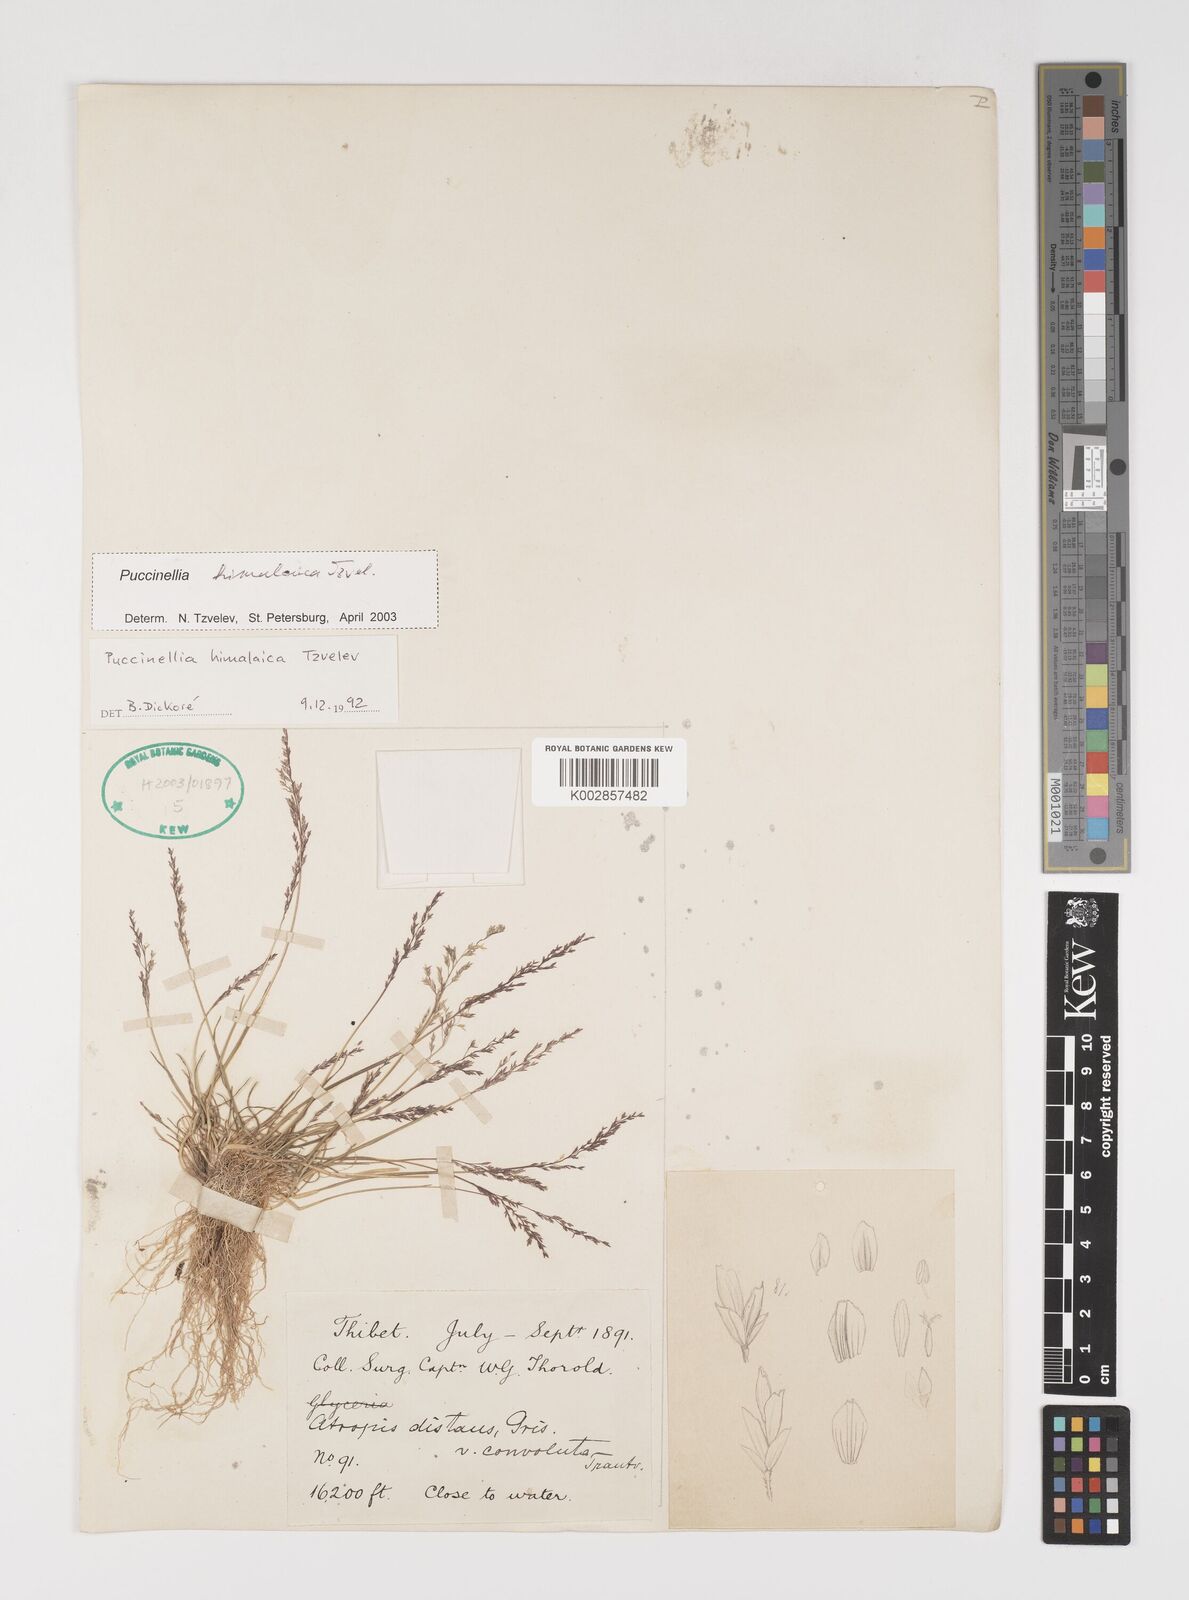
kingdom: Plantae
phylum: Tracheophyta
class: Liliopsida
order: Poales
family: Poaceae
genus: Puccinellia
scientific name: Puccinellia himalaica
